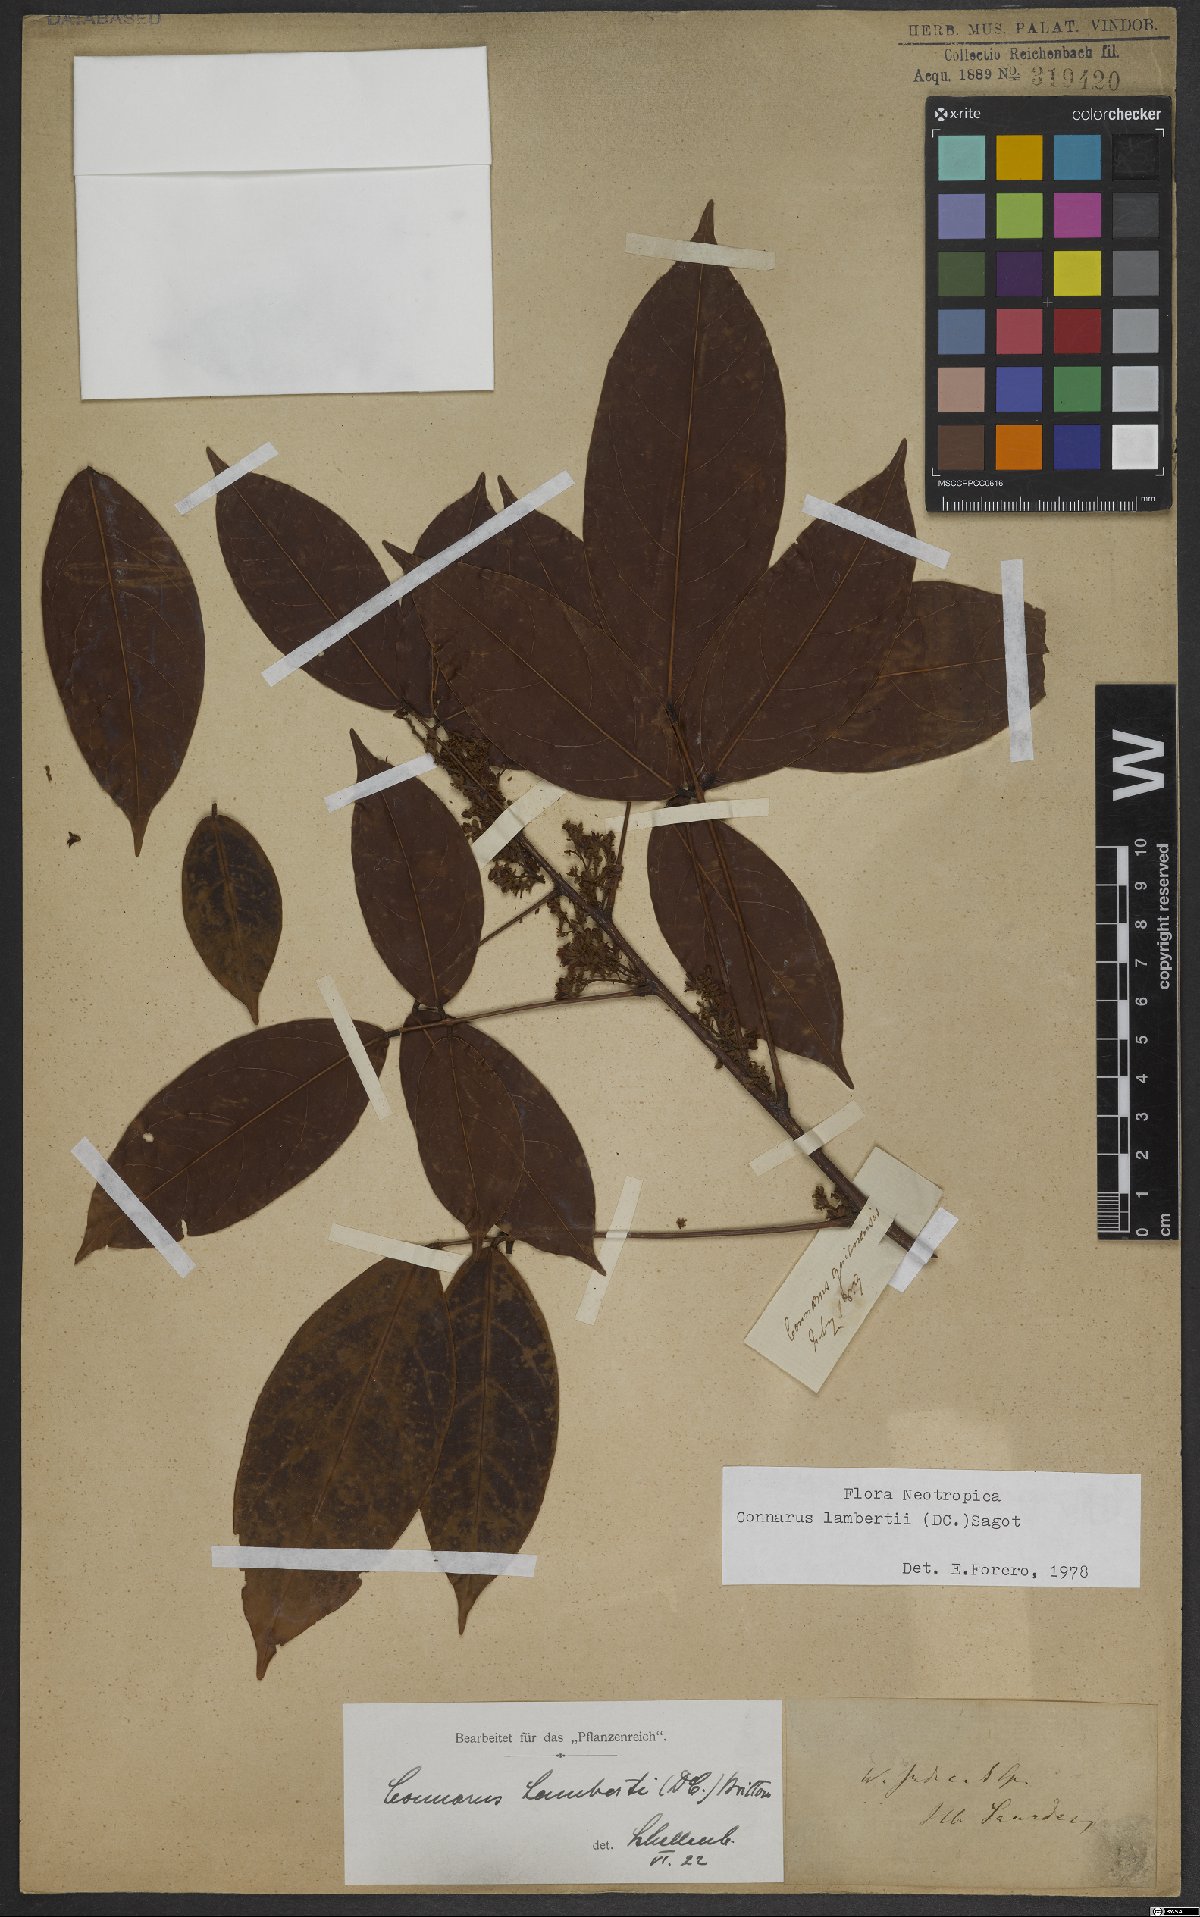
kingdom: Plantae
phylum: Tracheophyta
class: Magnoliopsida
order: Oxalidales
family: Connaraceae
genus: Connarus
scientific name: Connarus lambertii
